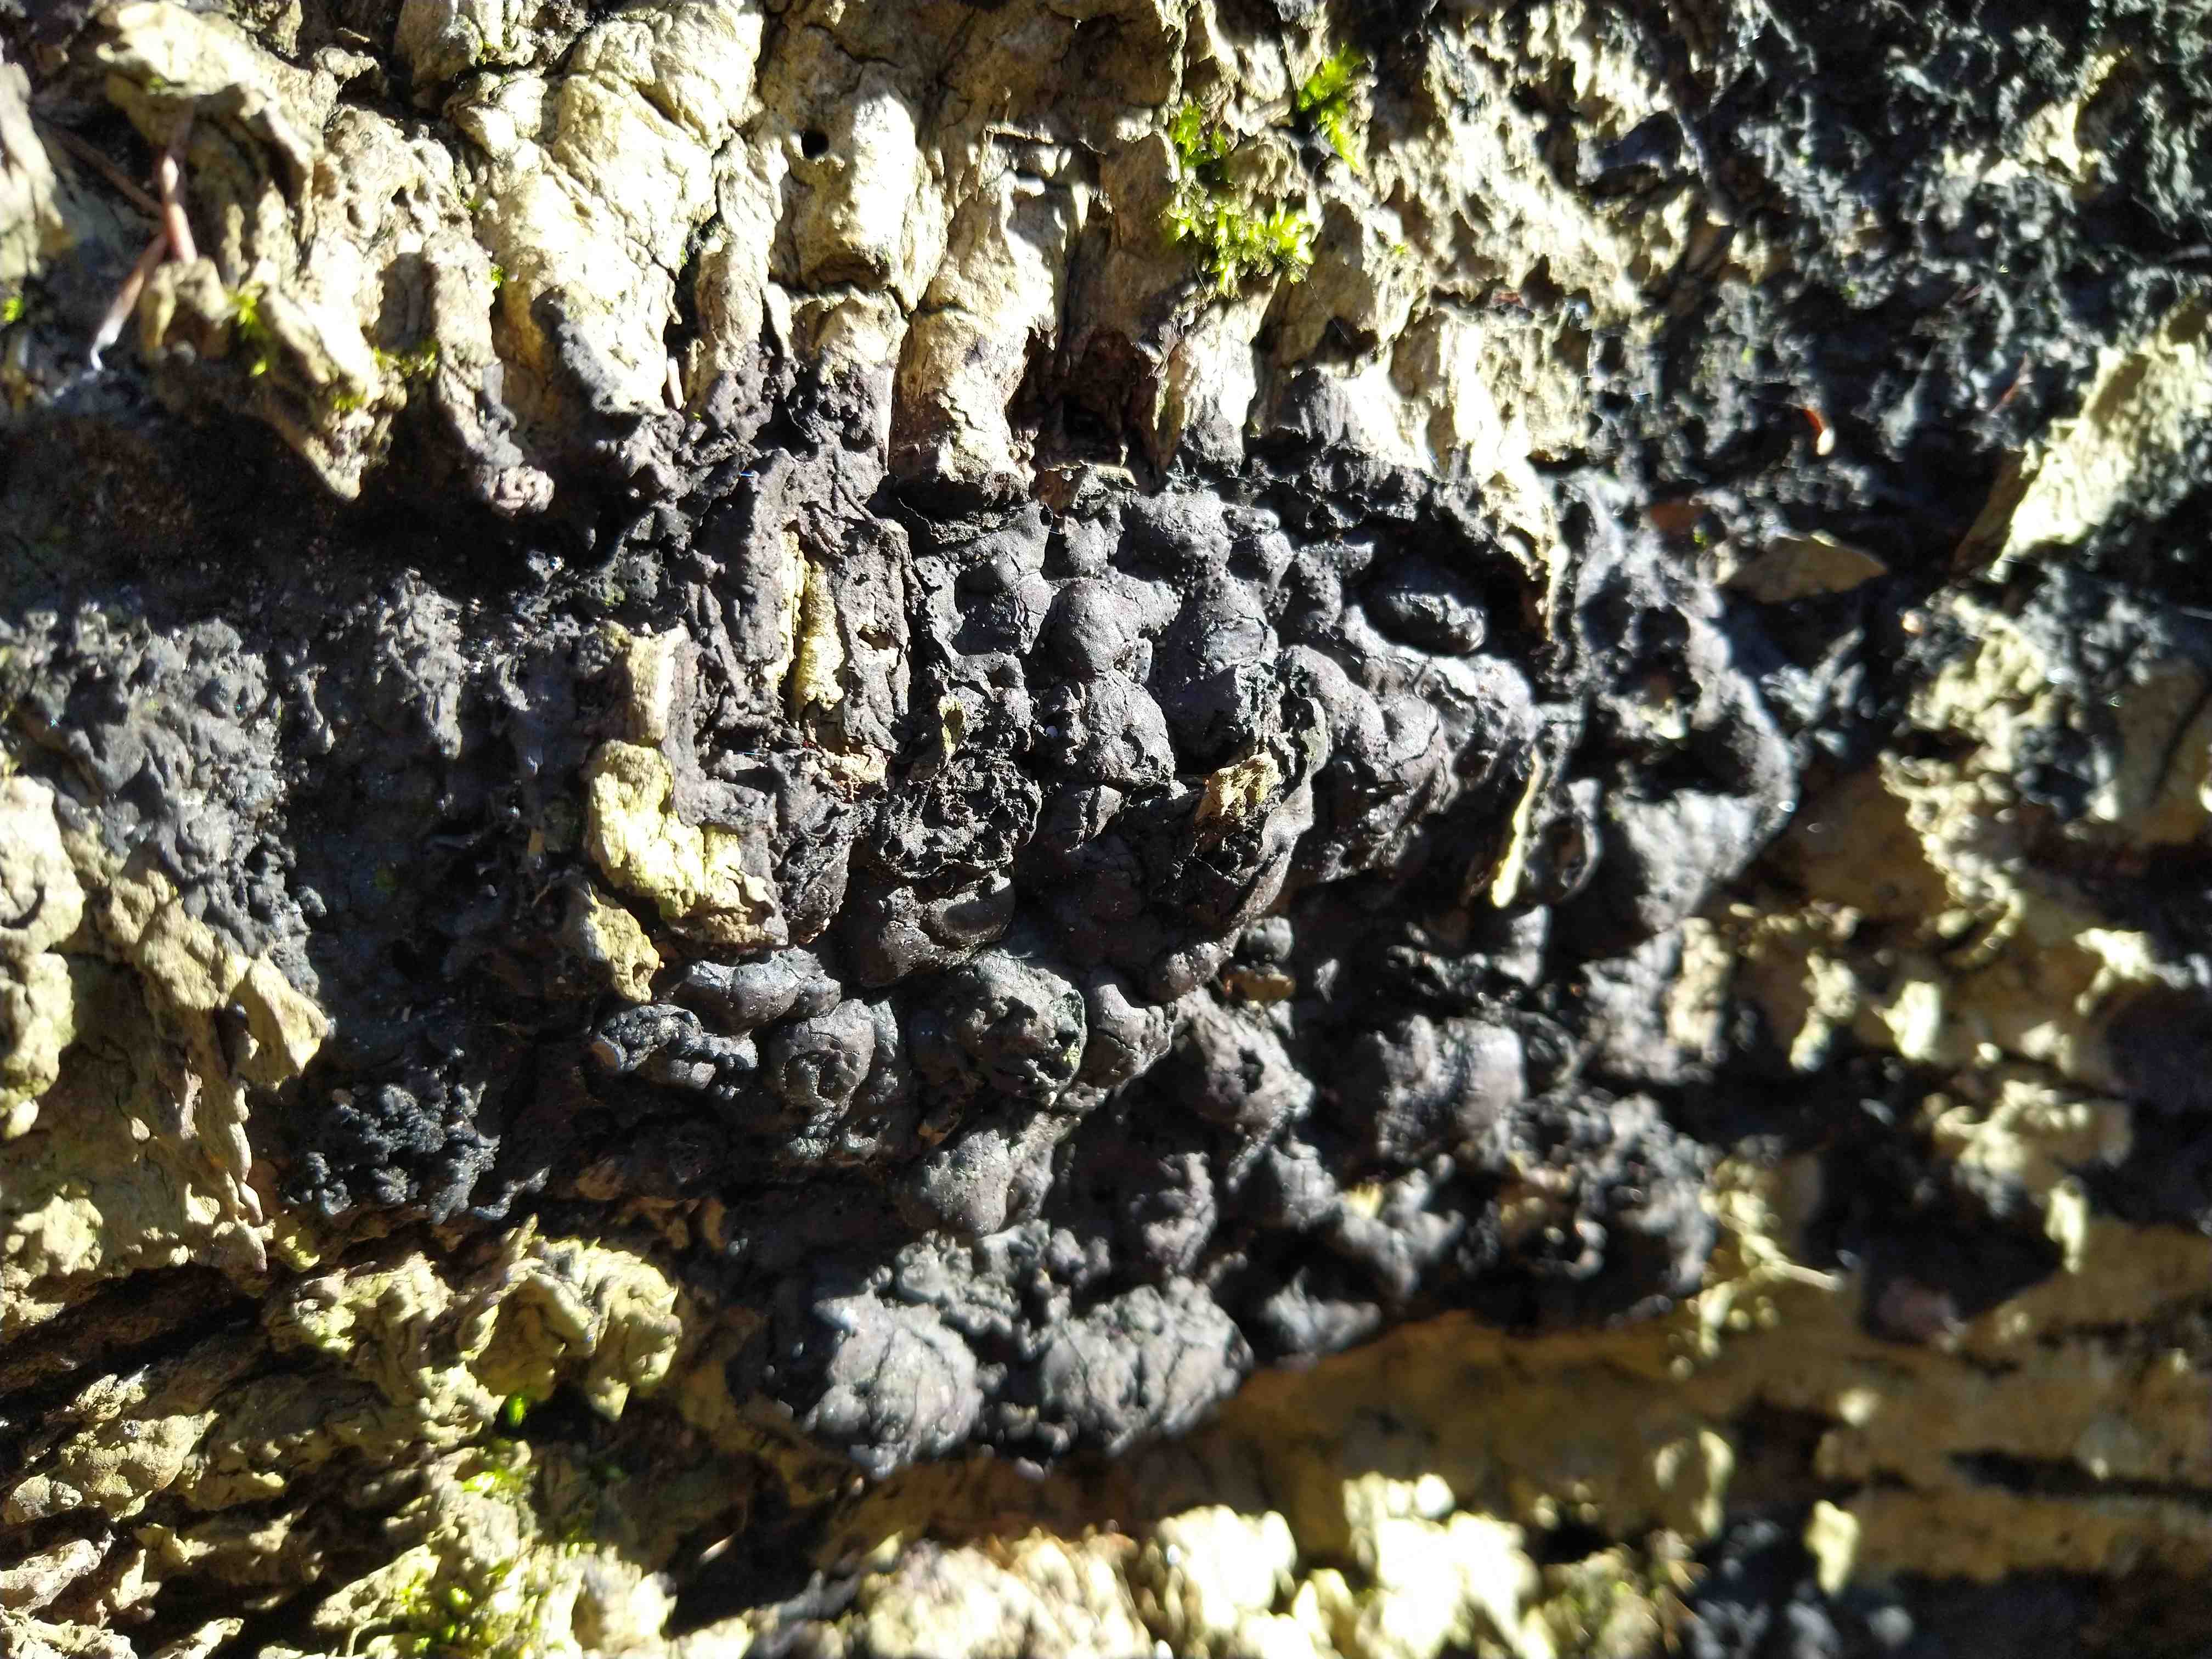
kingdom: Fungi
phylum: Ascomycota
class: Sordariomycetes
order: Xylariales
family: Xylariaceae
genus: Kretzschmaria
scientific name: Kretzschmaria deusta
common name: stor kulsvamp
